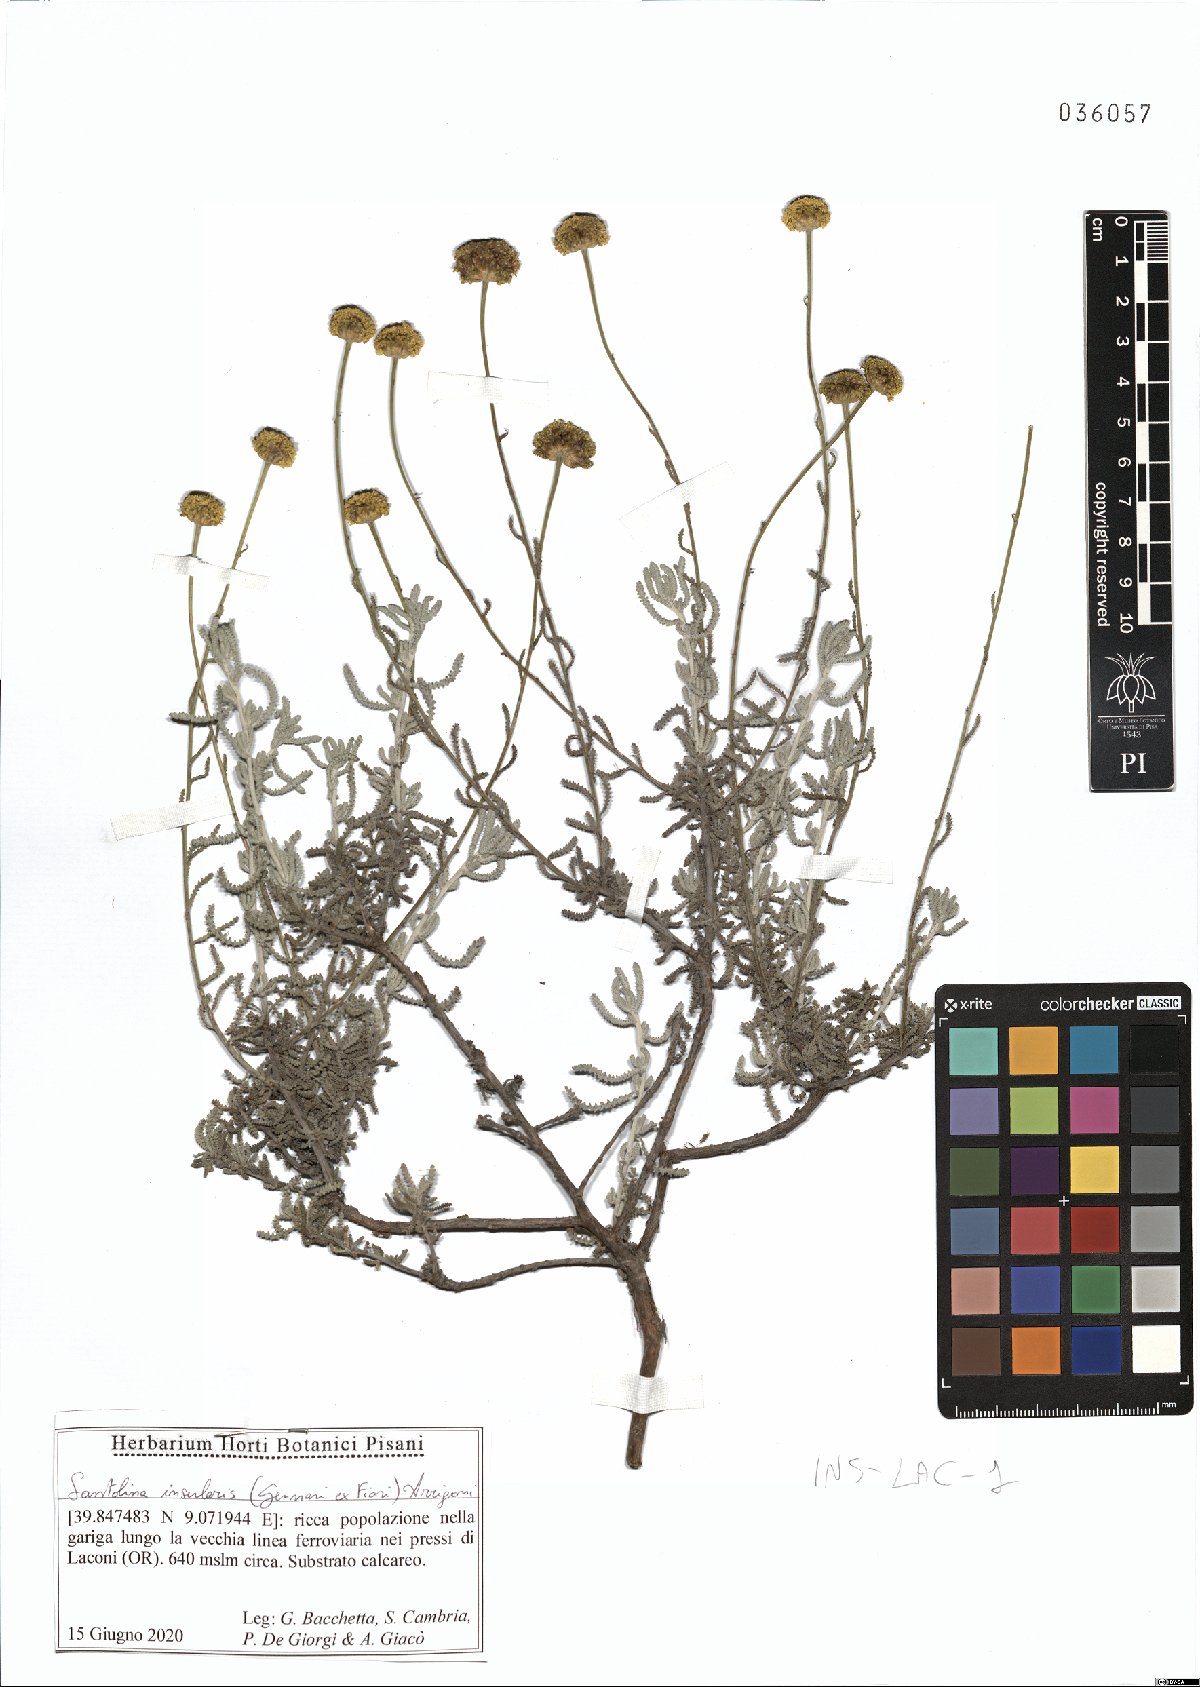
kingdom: Plantae
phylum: Tracheophyta
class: Magnoliopsida
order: Asterales
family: Asteraceae
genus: Santolina
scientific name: Santolina insularis
